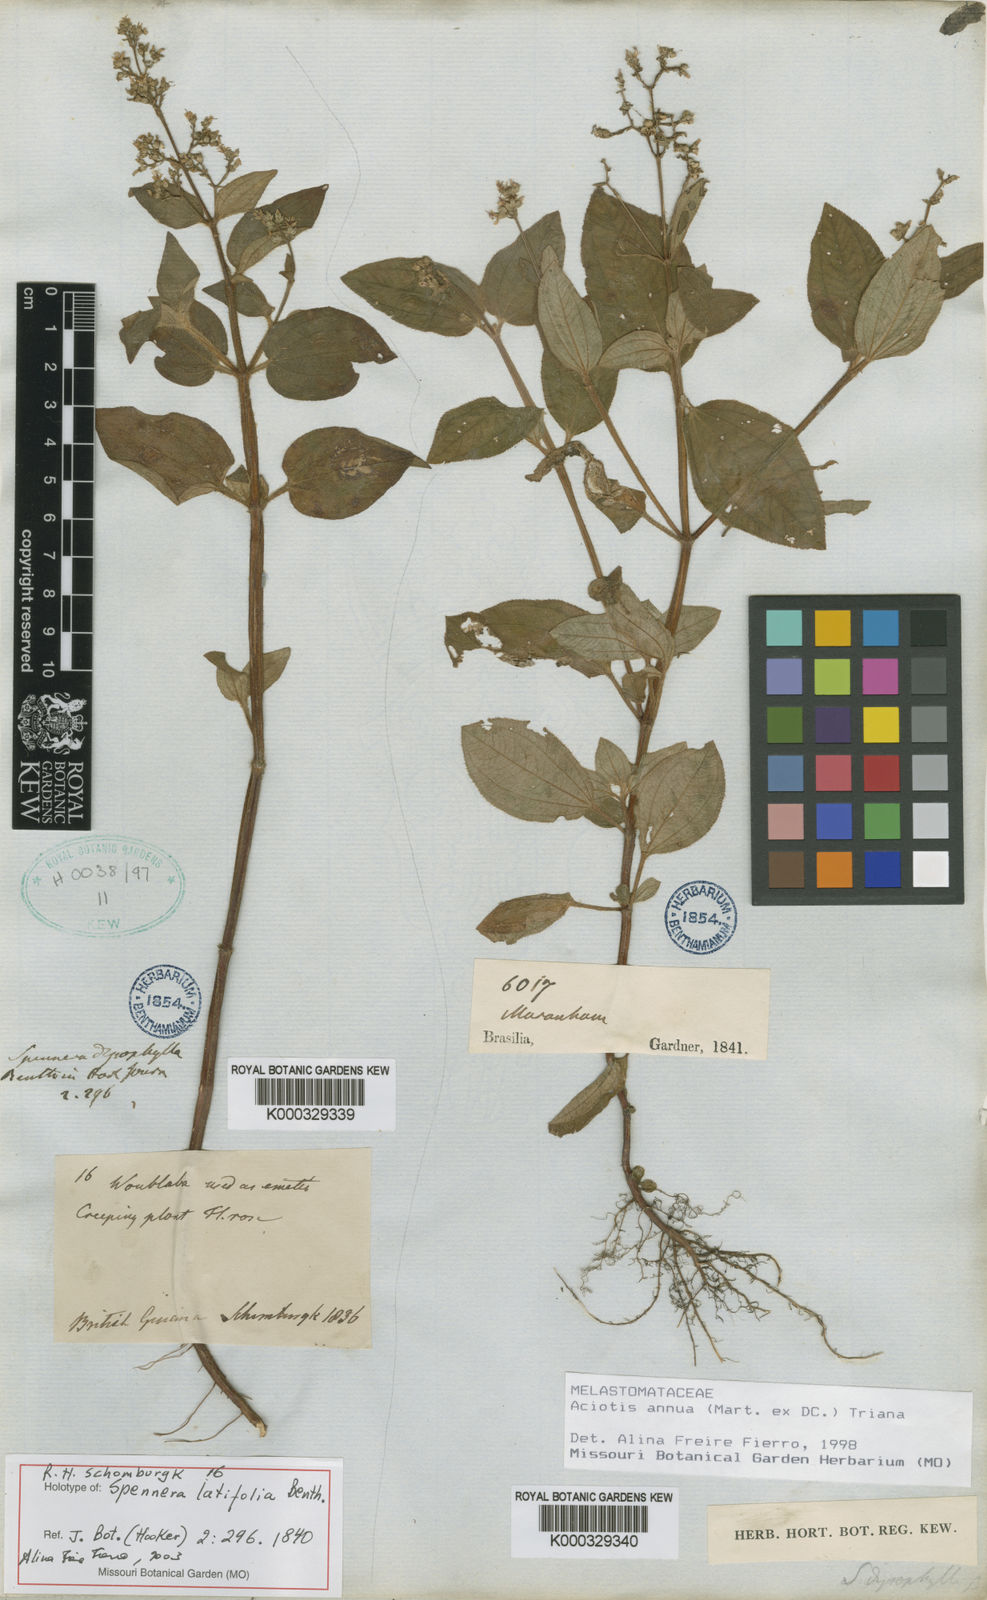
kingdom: Plantae
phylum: Tracheophyta
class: Magnoliopsida
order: Myrtales
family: Melastomataceae
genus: Aciotis
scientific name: Aciotis annua
